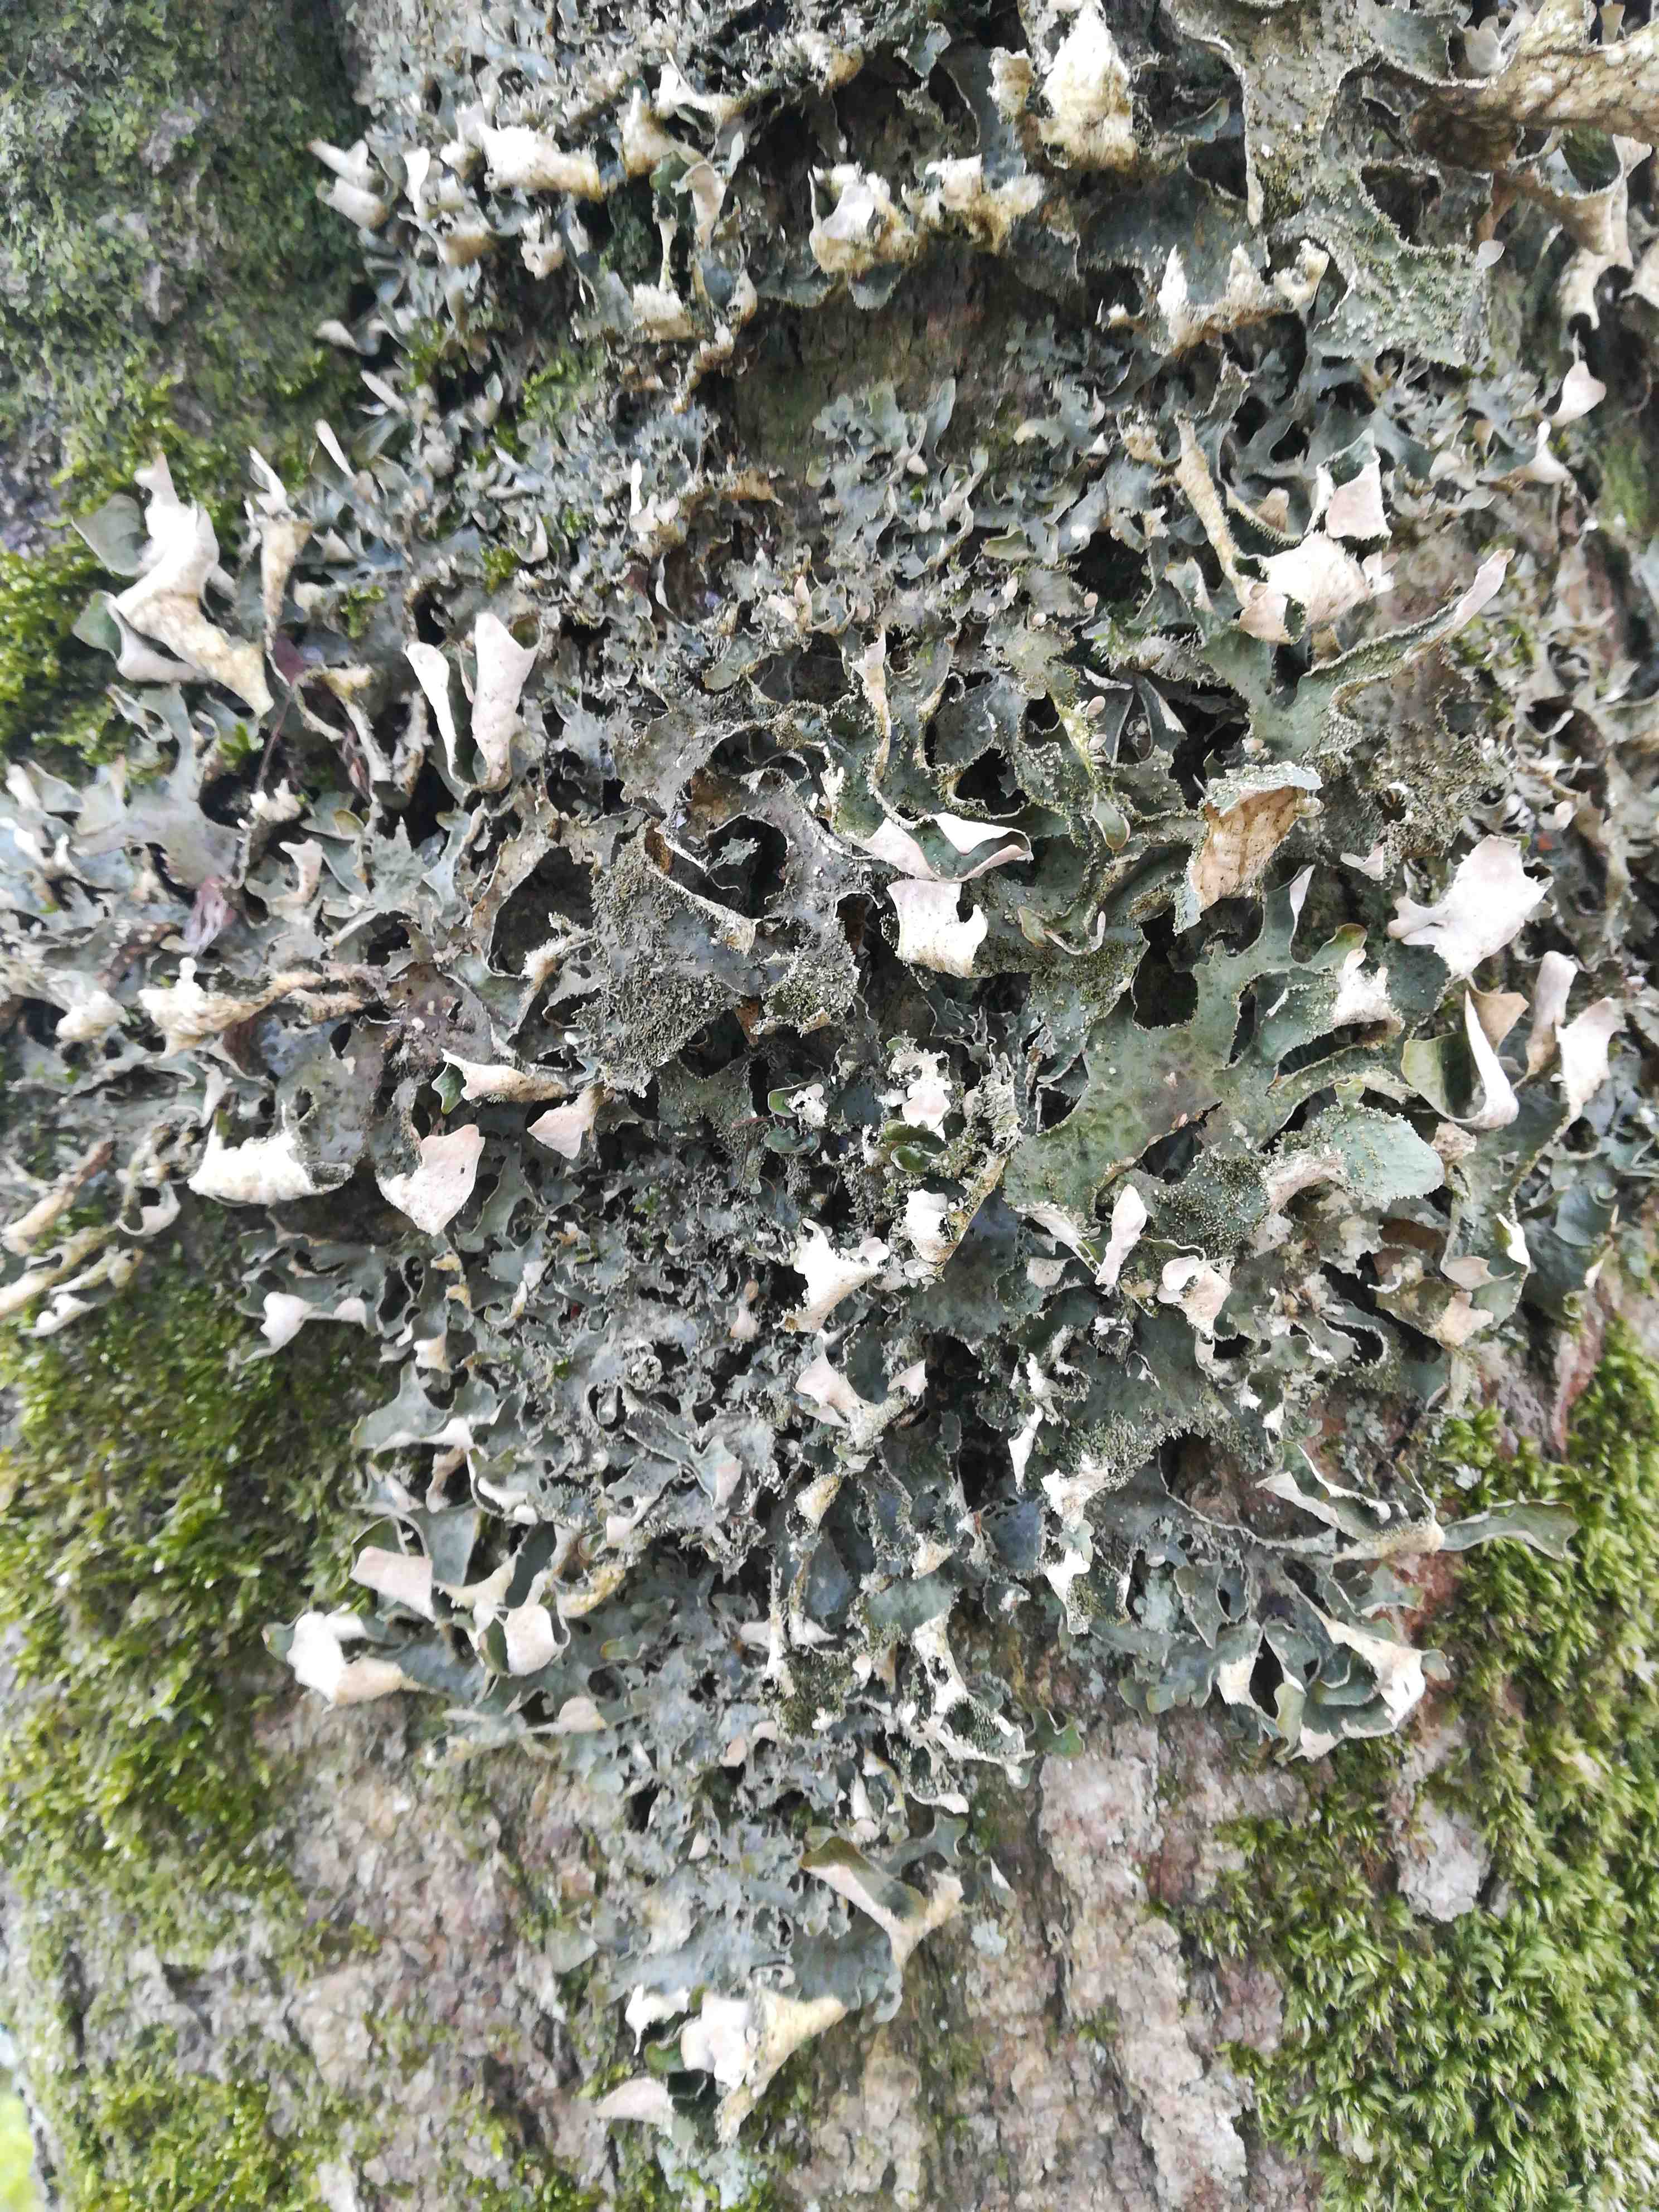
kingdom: Fungi
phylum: Ascomycota
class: Lecanoromycetes
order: Peltigerales
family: Lobariaceae
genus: Lobaria
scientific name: Lobaria pulmonaria
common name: almindelig lungelav
